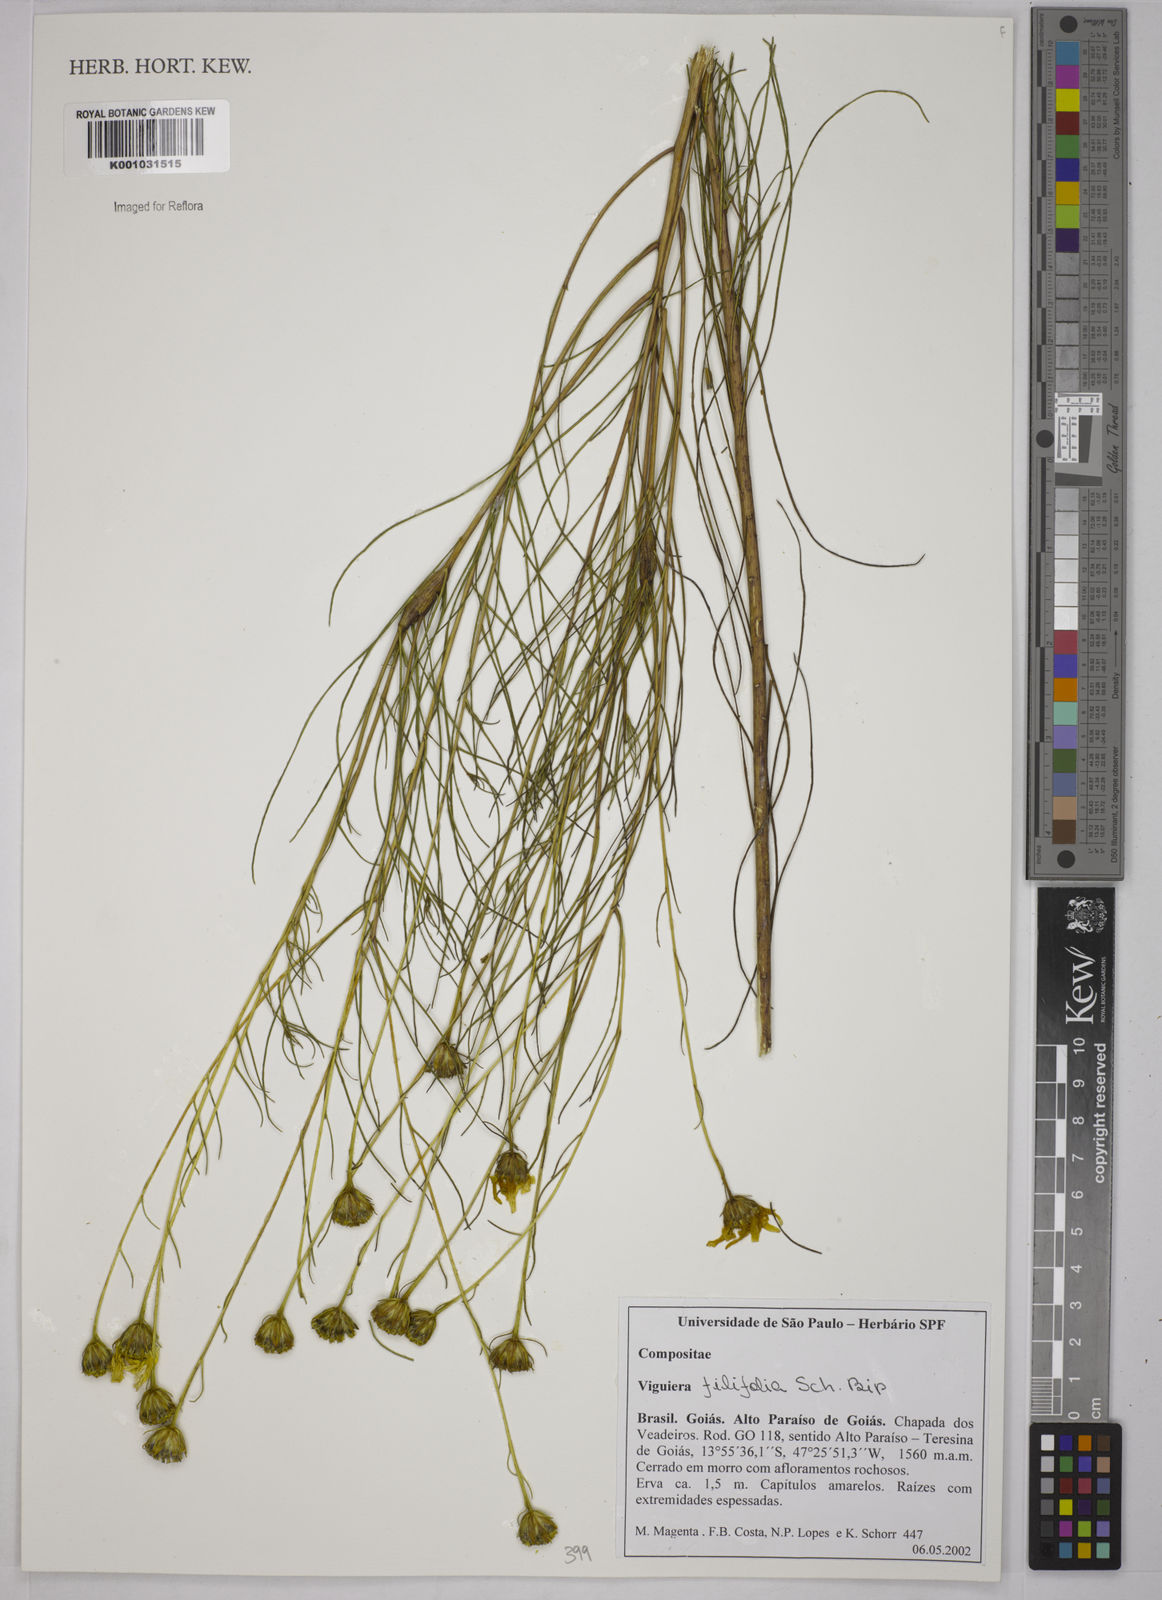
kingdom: Plantae
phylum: Tracheophyta
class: Magnoliopsida
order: Asterales
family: Asteraceae
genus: Aldama
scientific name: Aldama filifolia
